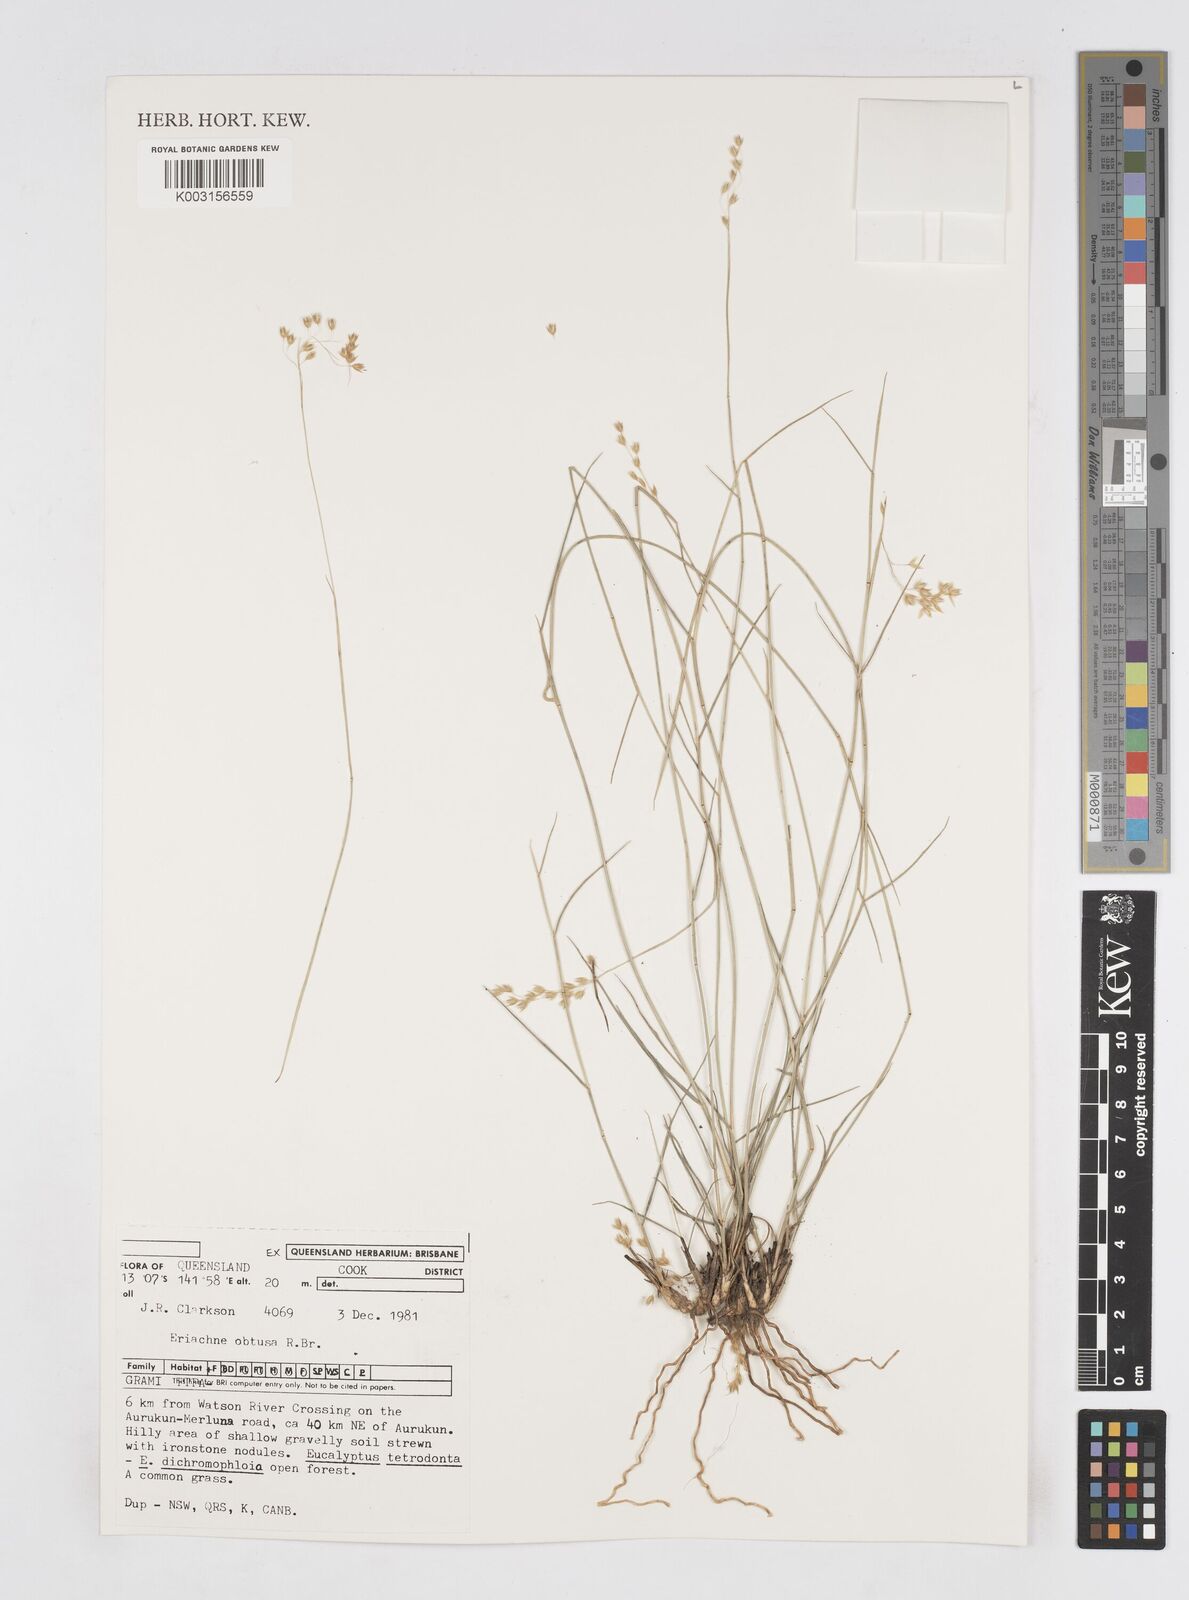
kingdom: Plantae
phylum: Tracheophyta
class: Liliopsida
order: Poales
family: Poaceae
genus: Eriachne
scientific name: Eriachne obtusa
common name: Northern wanderrie grass
